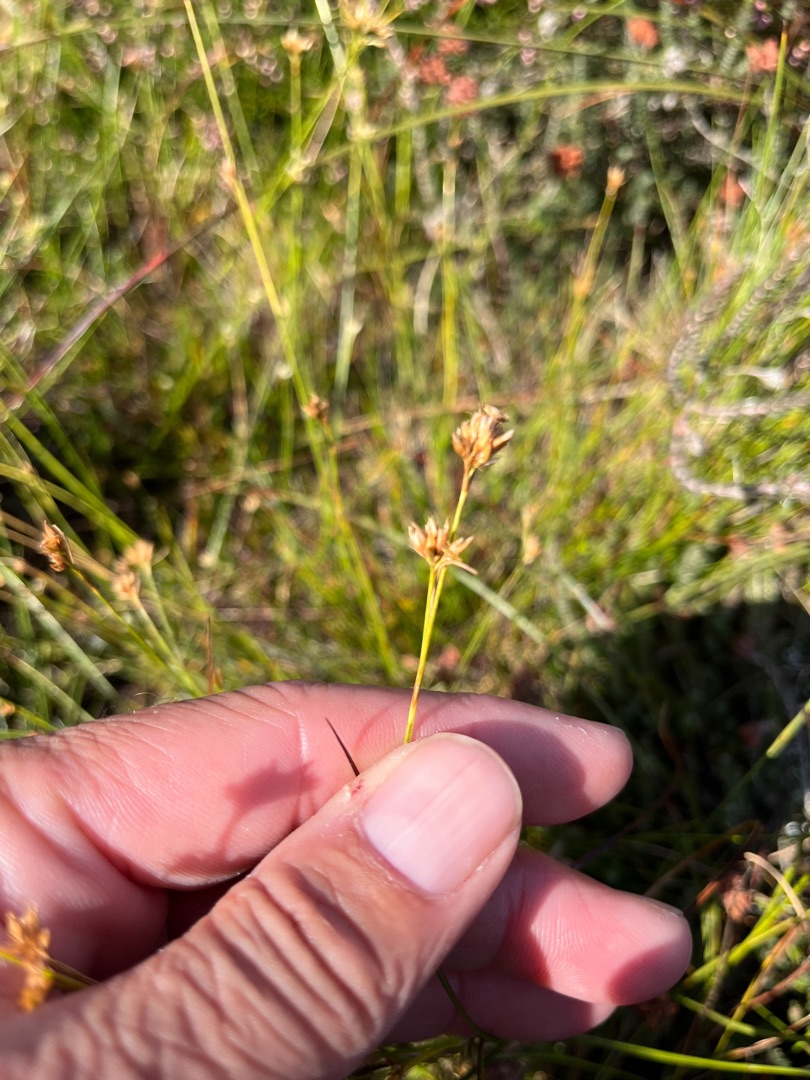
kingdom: Plantae
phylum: Tracheophyta
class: Liliopsida
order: Poales
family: Cyperaceae
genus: Rhynchospora
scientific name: Rhynchospora alba
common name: Hvid næbfrø
